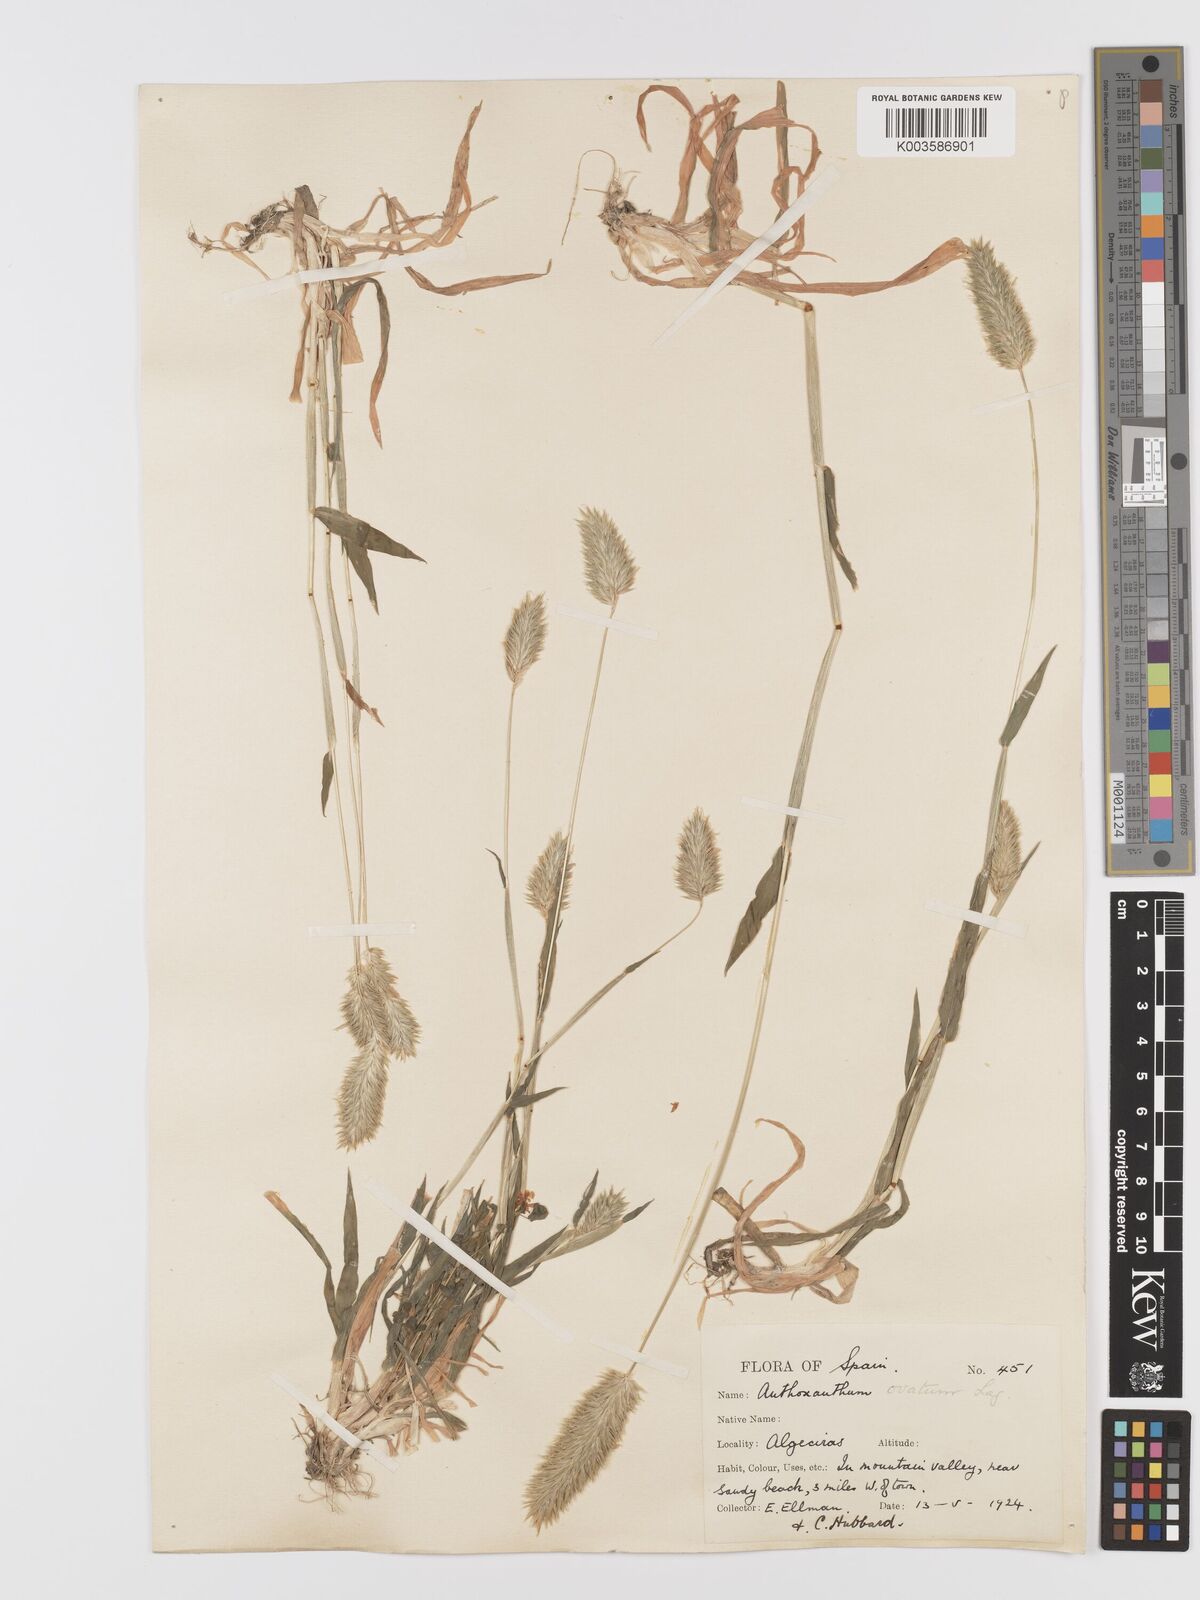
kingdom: Plantae
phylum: Tracheophyta
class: Liliopsida
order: Poales
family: Poaceae
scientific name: Poaceae
